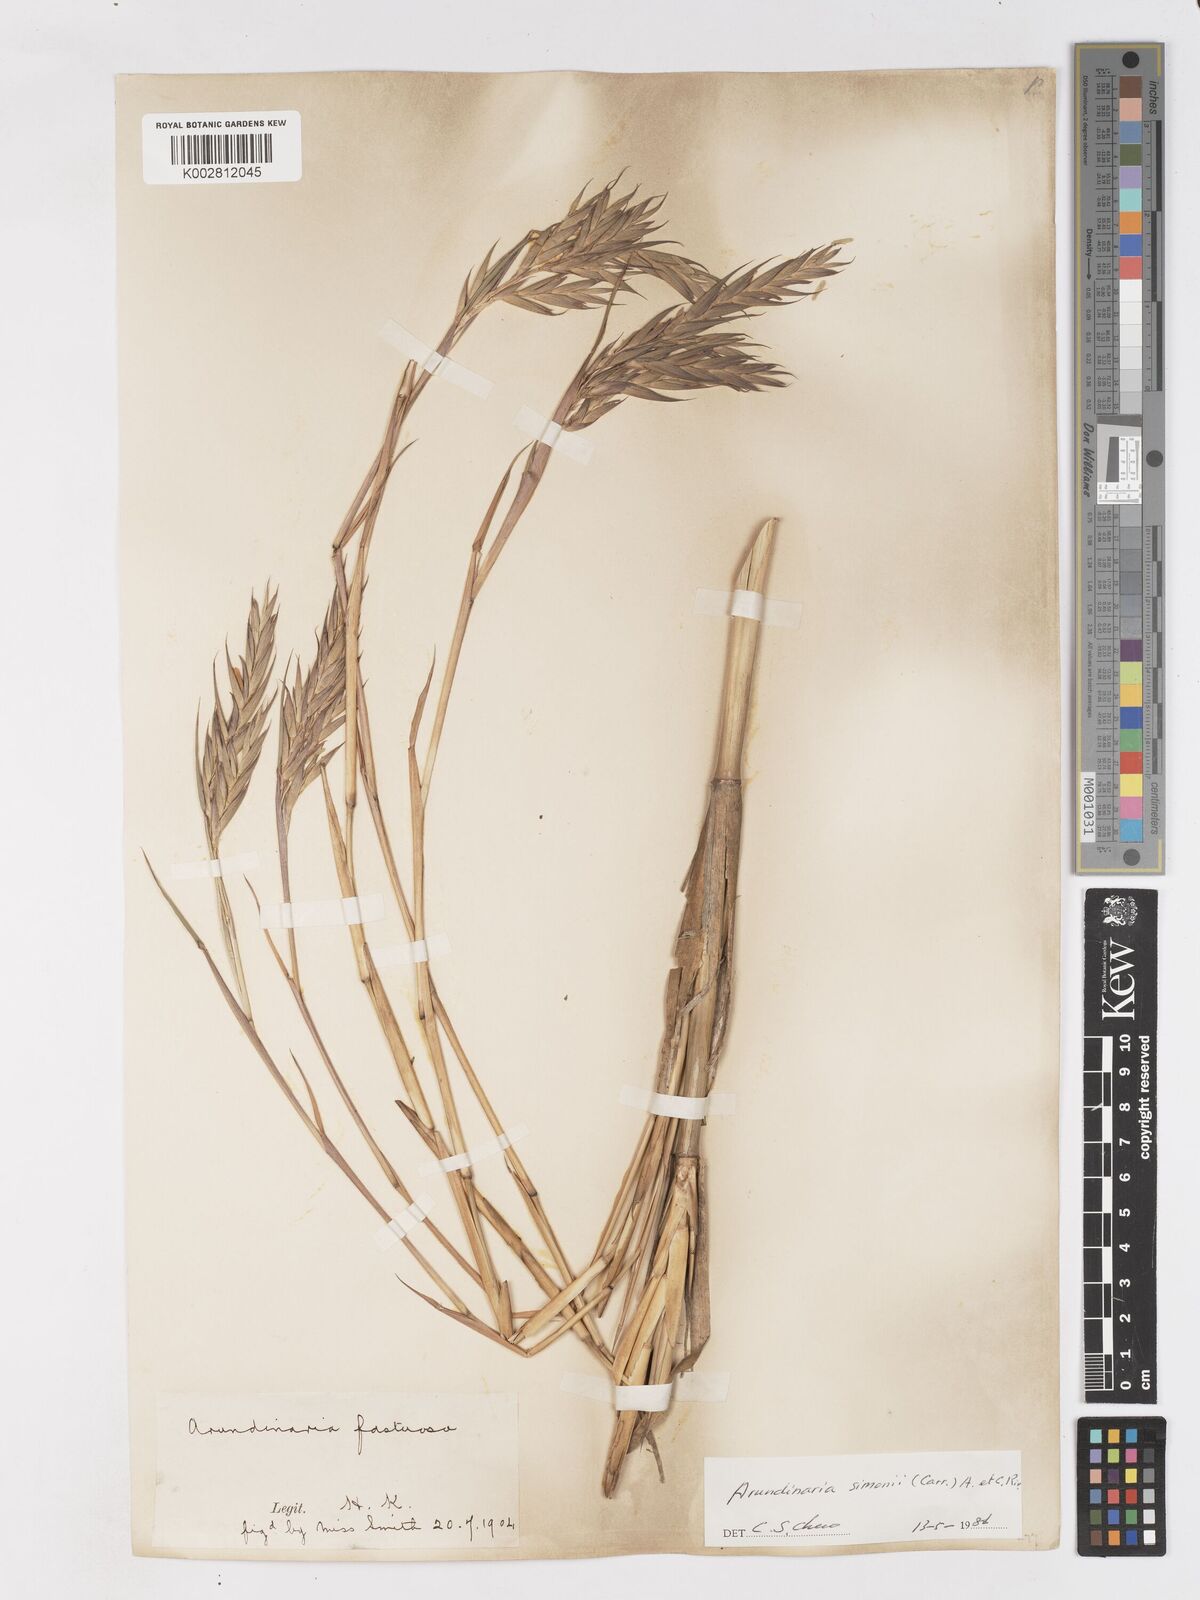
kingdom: Plantae
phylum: Tracheophyta
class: Liliopsida
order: Poales
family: Poaceae
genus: Pleioblastus
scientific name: Pleioblastus simonii
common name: Simon bamboo
